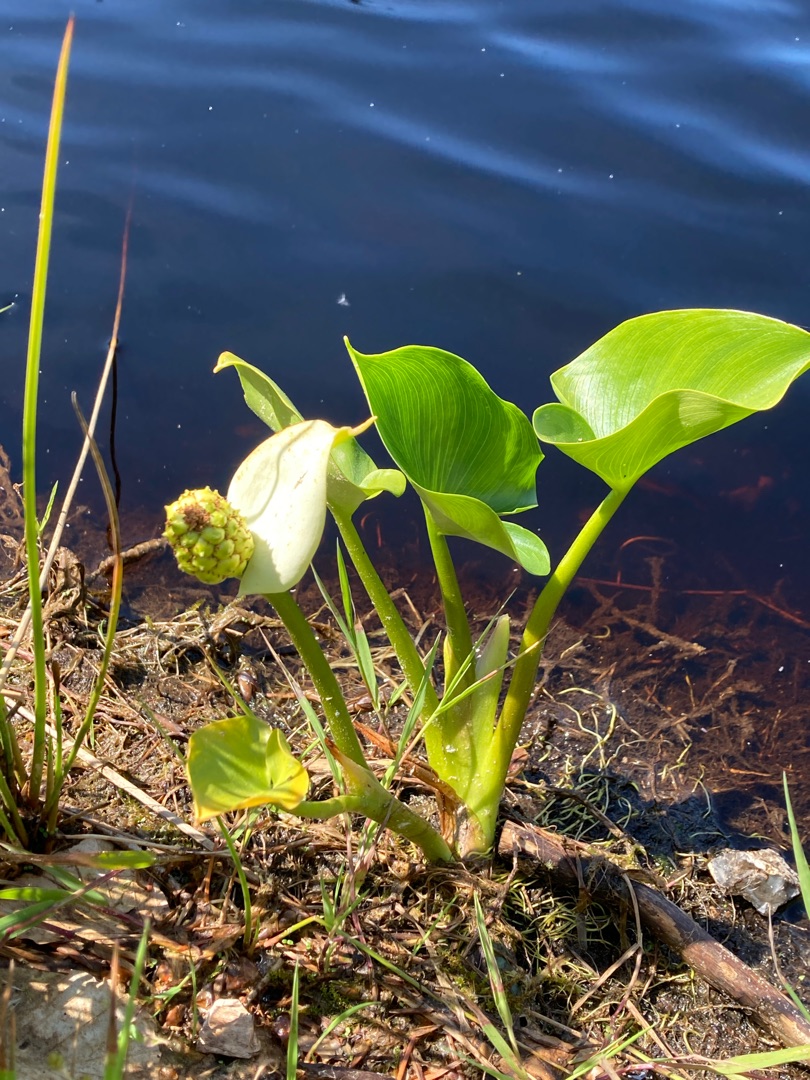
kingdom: Plantae
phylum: Tracheophyta
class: Liliopsida
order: Alismatales
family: Araceae
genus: Calla
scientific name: Calla palustris
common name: Kærmysse
